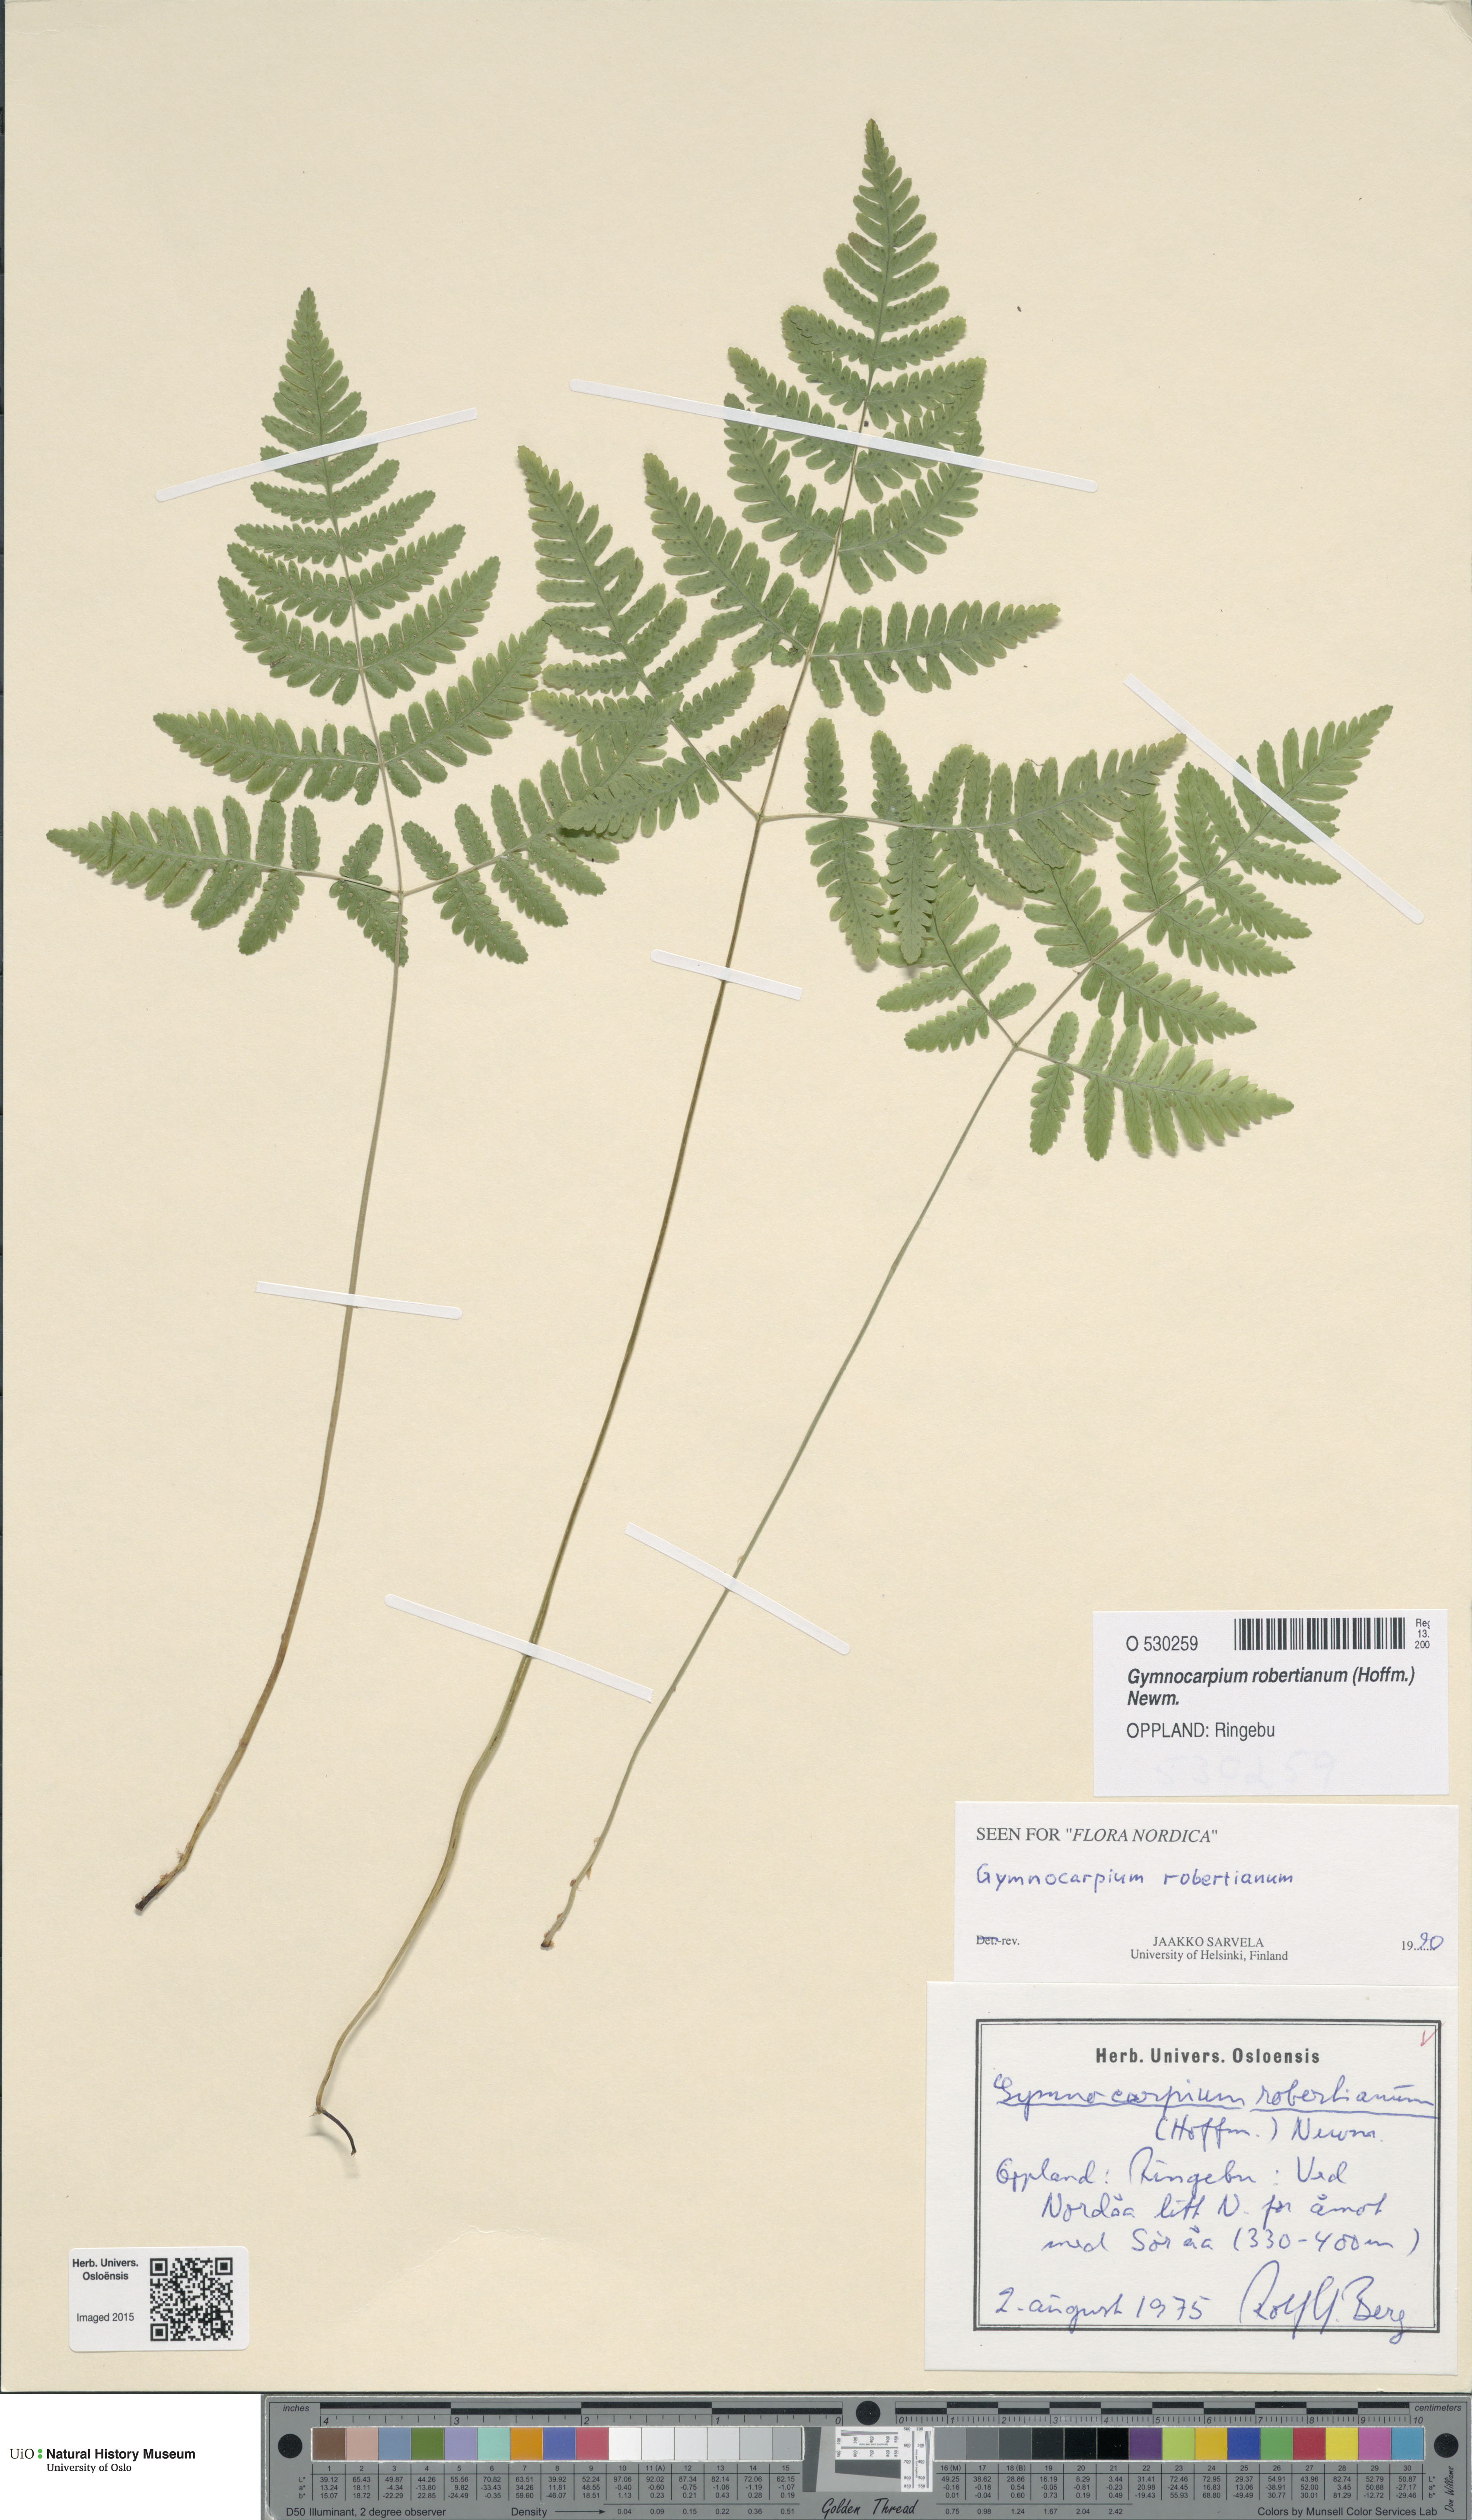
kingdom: Plantae
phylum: Tracheophyta
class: Polypodiopsida
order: Polypodiales
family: Cystopteridaceae
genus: Gymnocarpium
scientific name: Gymnocarpium robertianum
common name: Limestone fern
